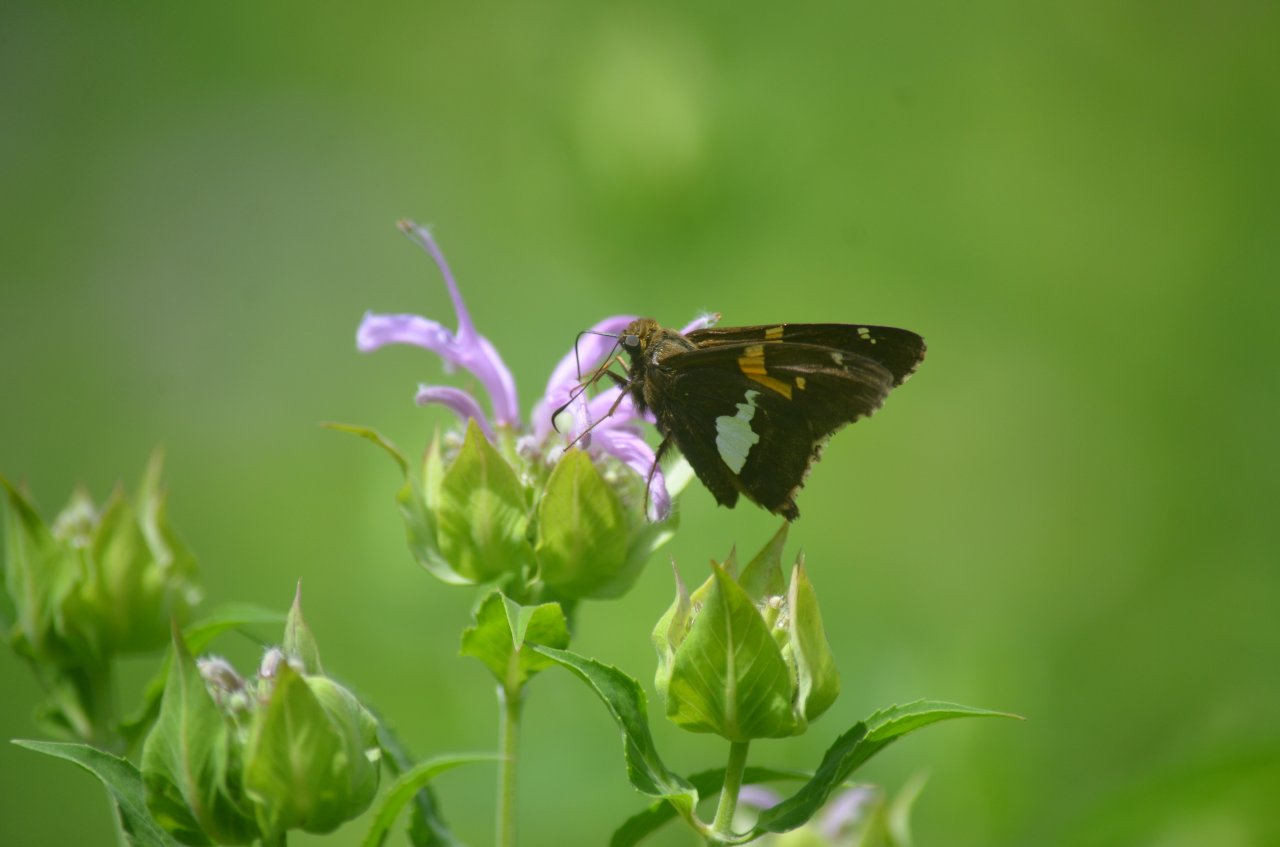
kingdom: Animalia
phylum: Arthropoda
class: Insecta
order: Lepidoptera
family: Hesperiidae
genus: Epargyreus
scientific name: Epargyreus clarus
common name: Silver-spotted Skipper
